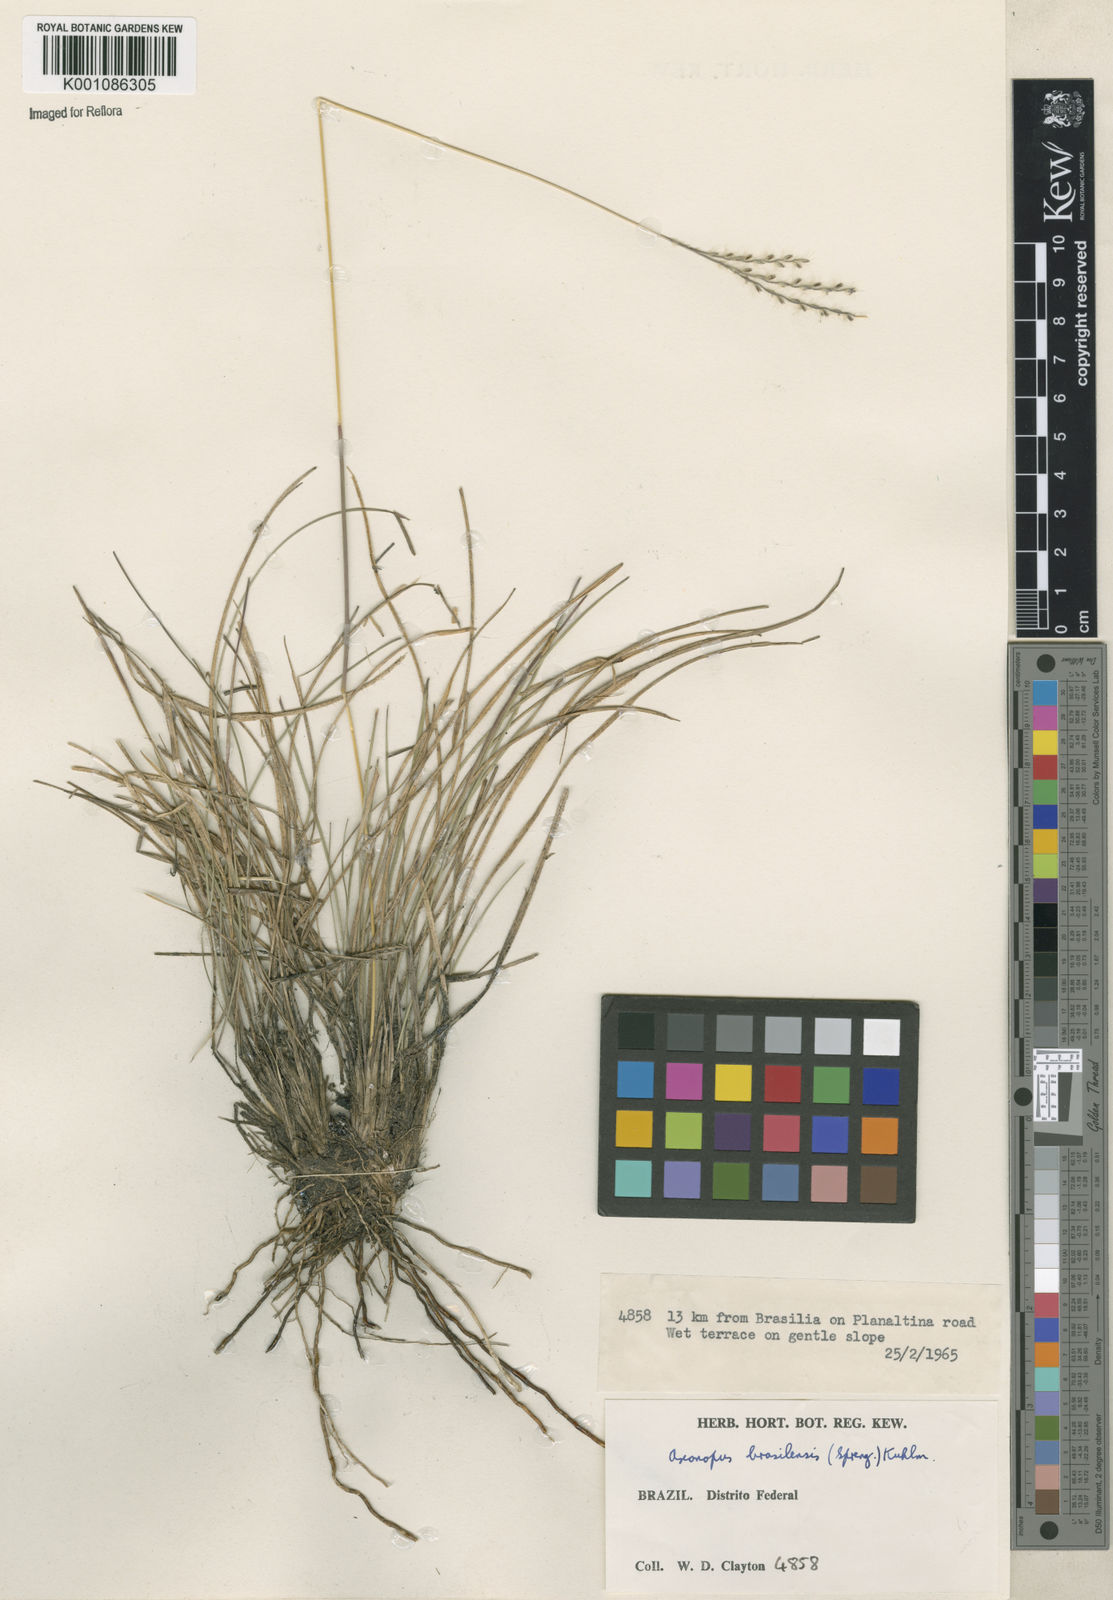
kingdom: Plantae
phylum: Tracheophyta
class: Liliopsida
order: Poales
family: Poaceae
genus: Axonopus
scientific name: Axonopus brasiliensis
